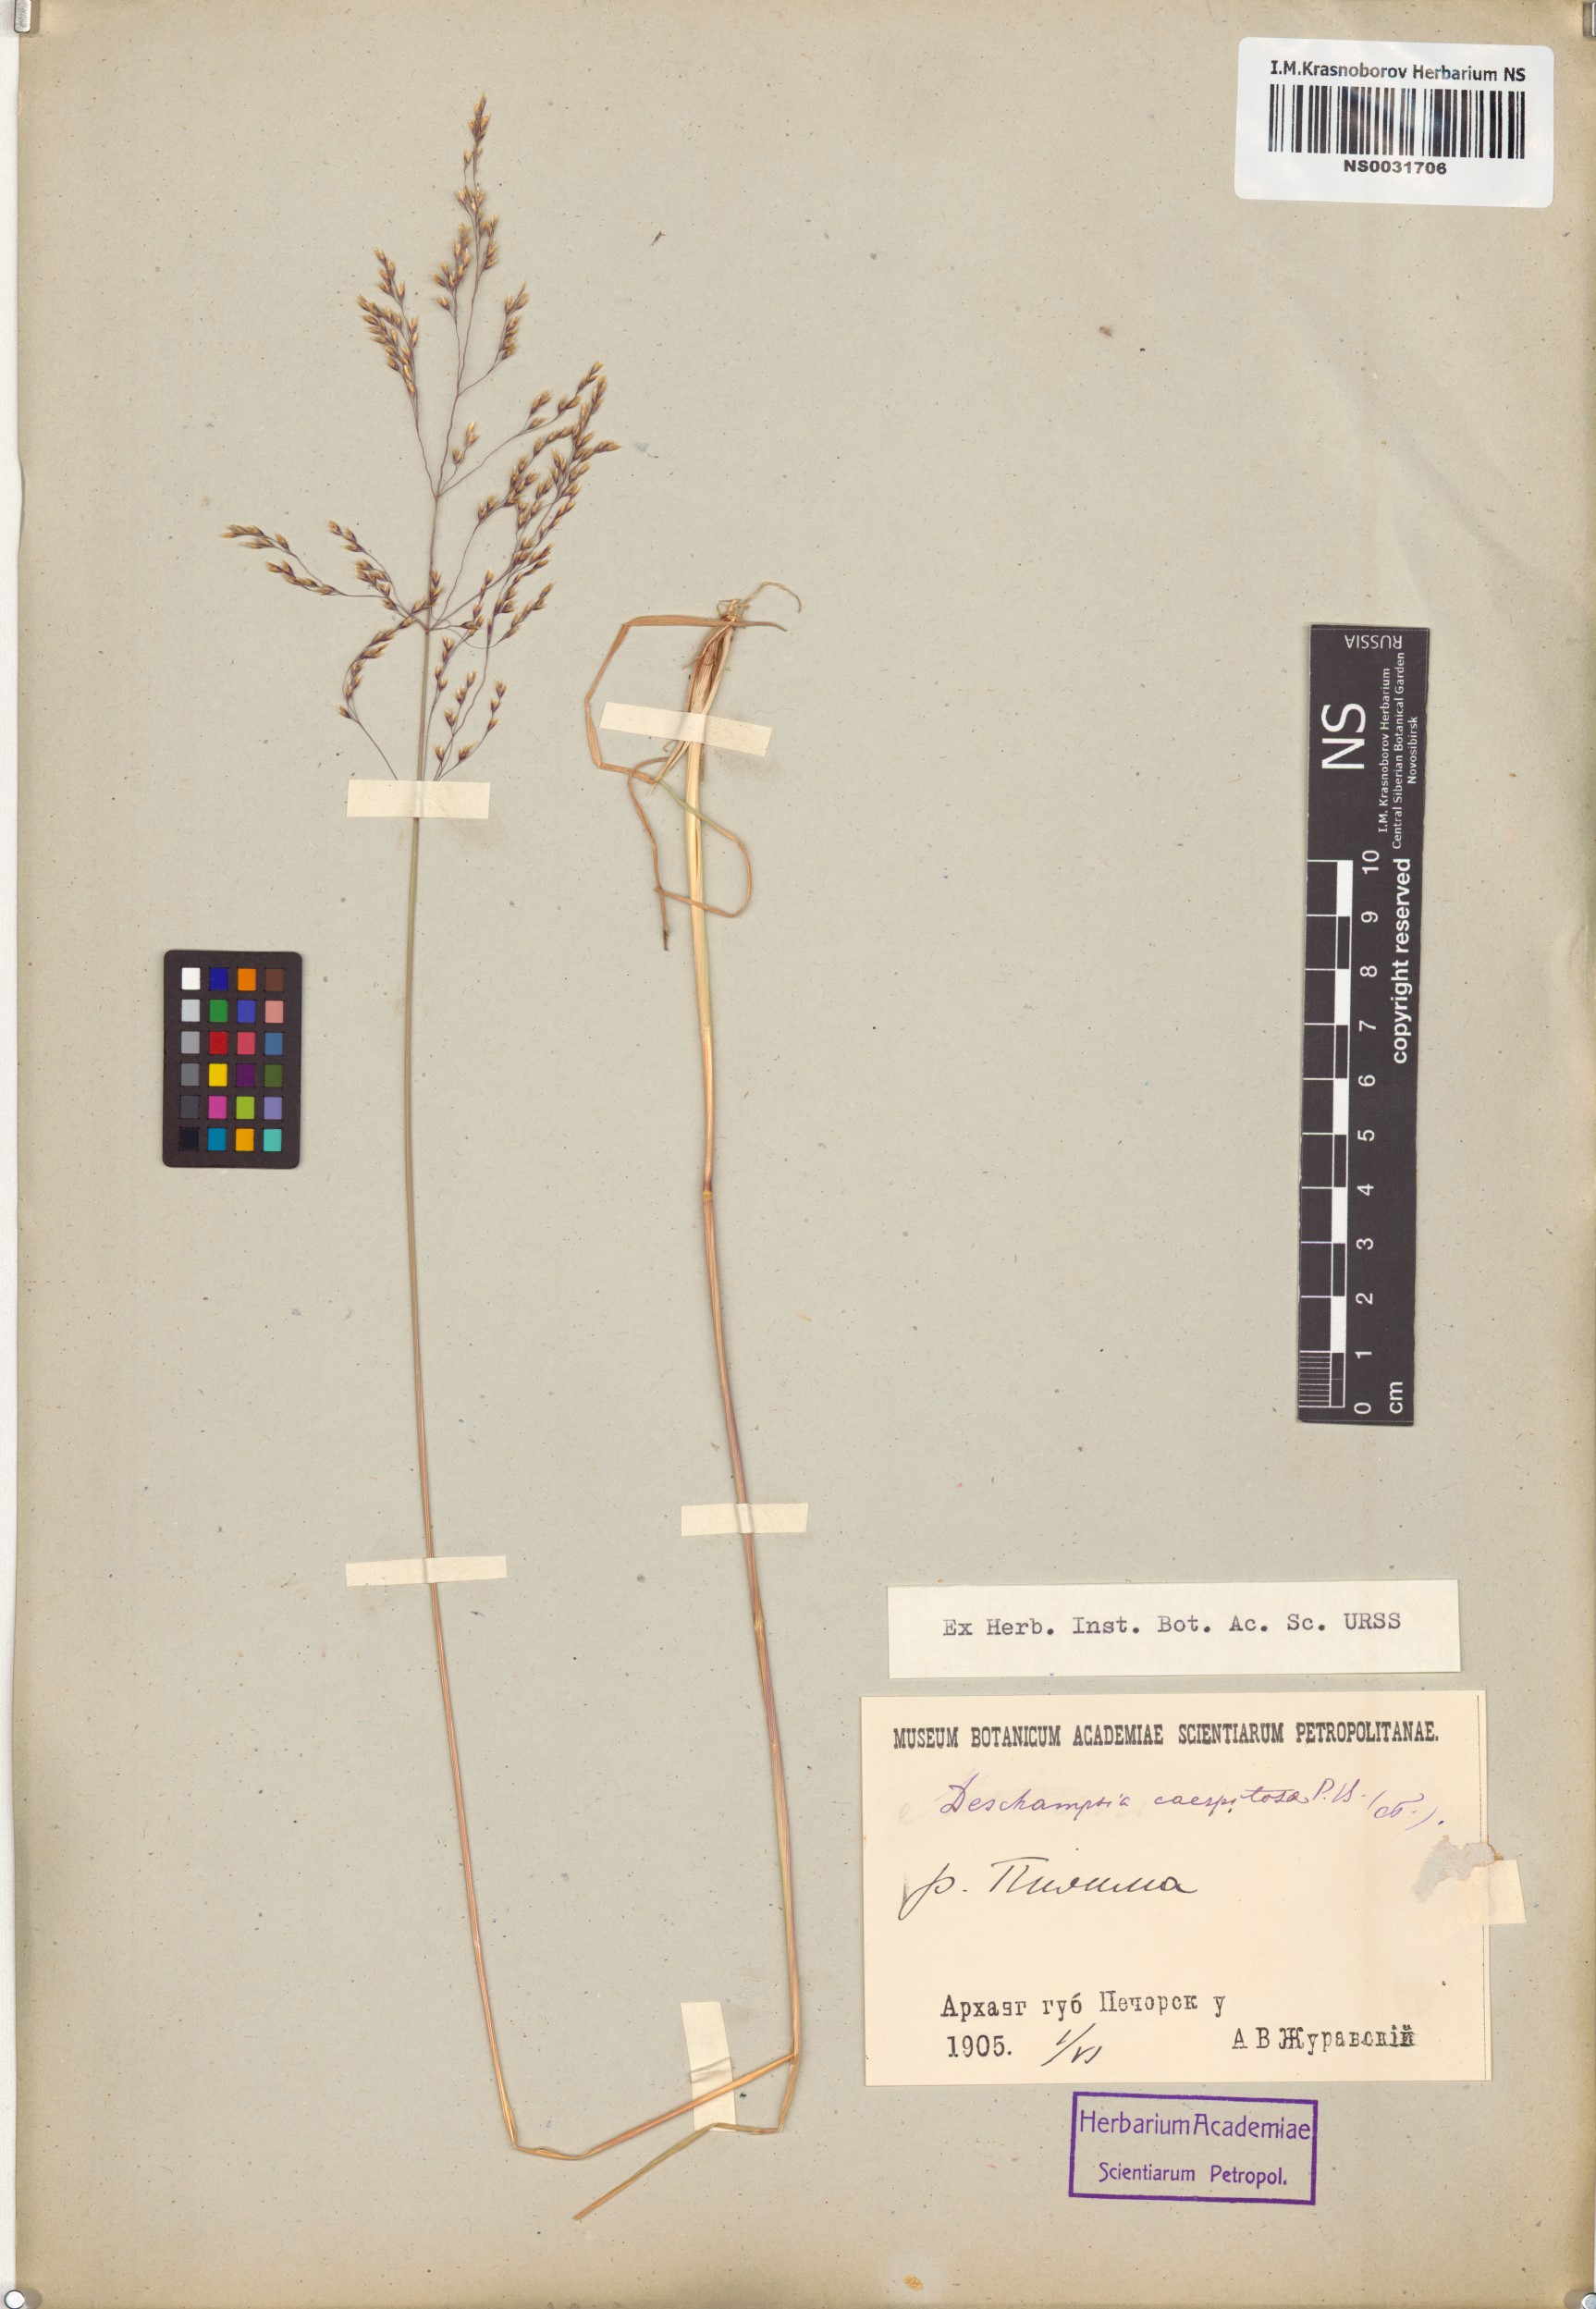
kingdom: Plantae
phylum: Tracheophyta
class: Liliopsida
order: Poales
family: Poaceae
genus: Deschampsia
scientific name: Deschampsia cespitosa
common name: Tufted hair-grass
